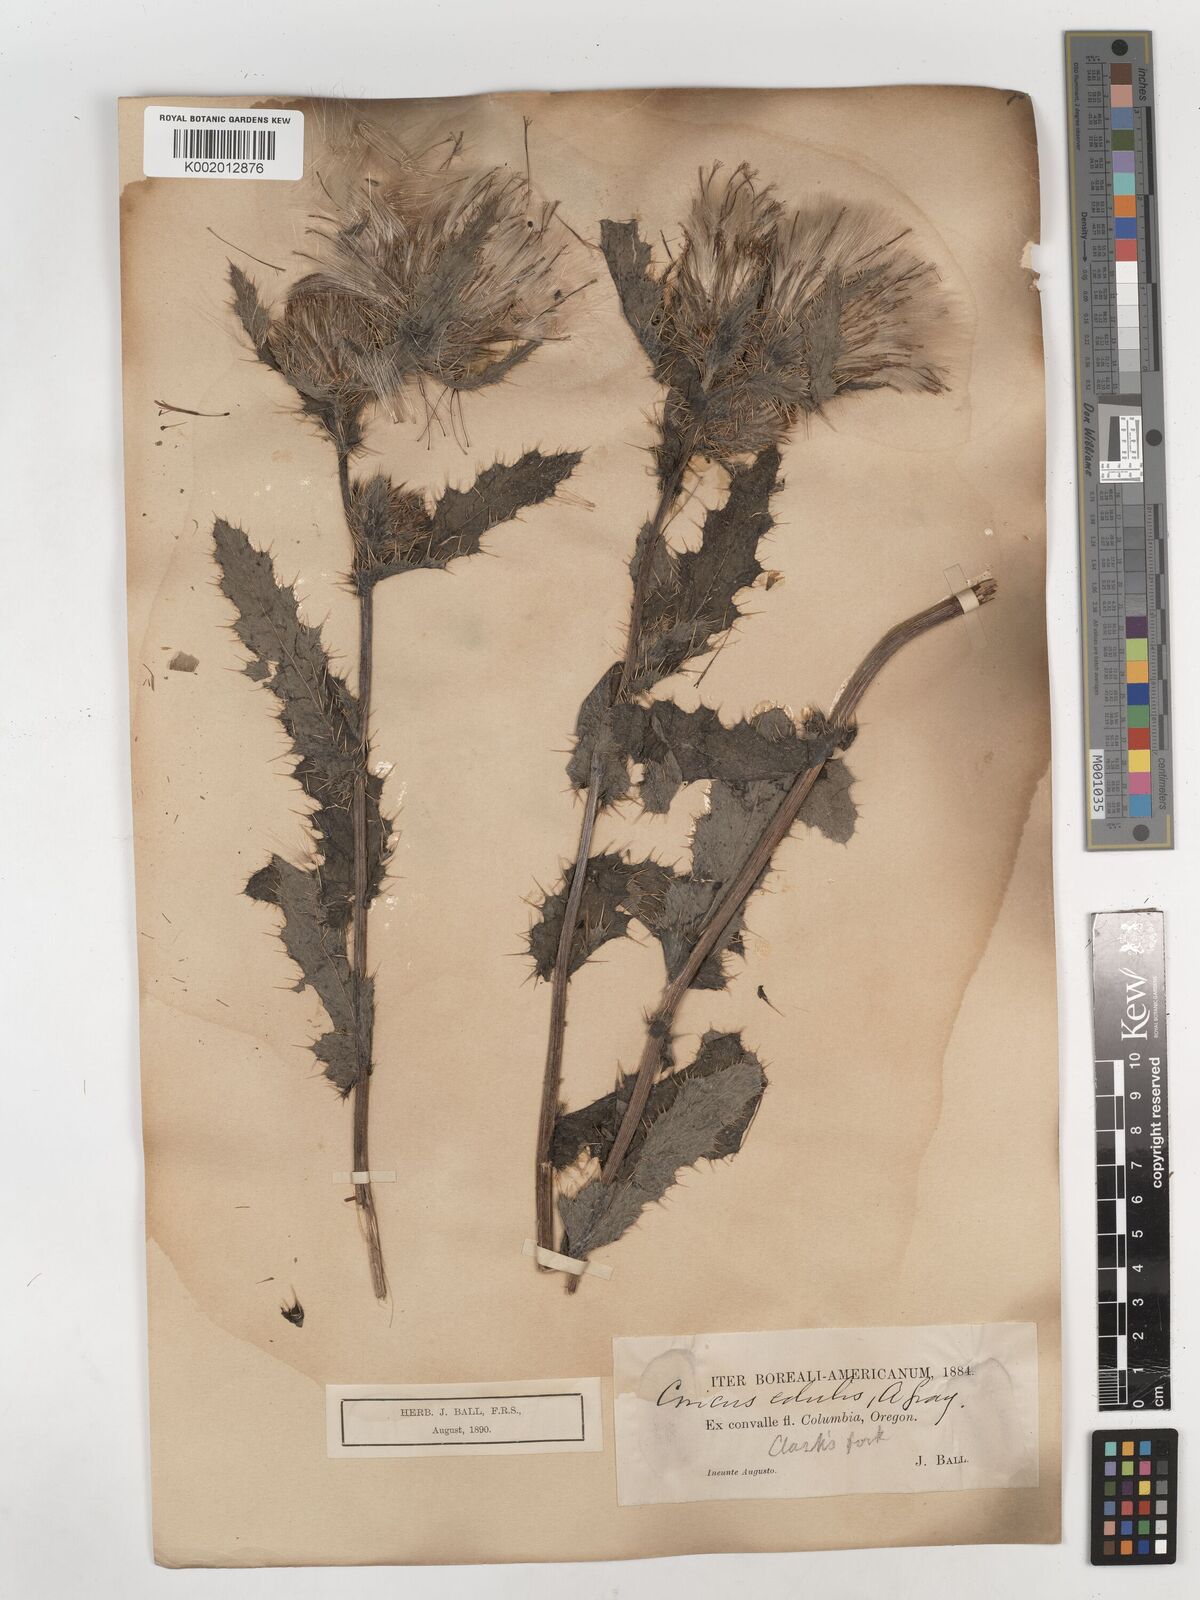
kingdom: Plantae
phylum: Tracheophyta
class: Magnoliopsida
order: Asterales
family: Asteraceae
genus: Cirsium
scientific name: Cirsium edule
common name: Indian thistle
